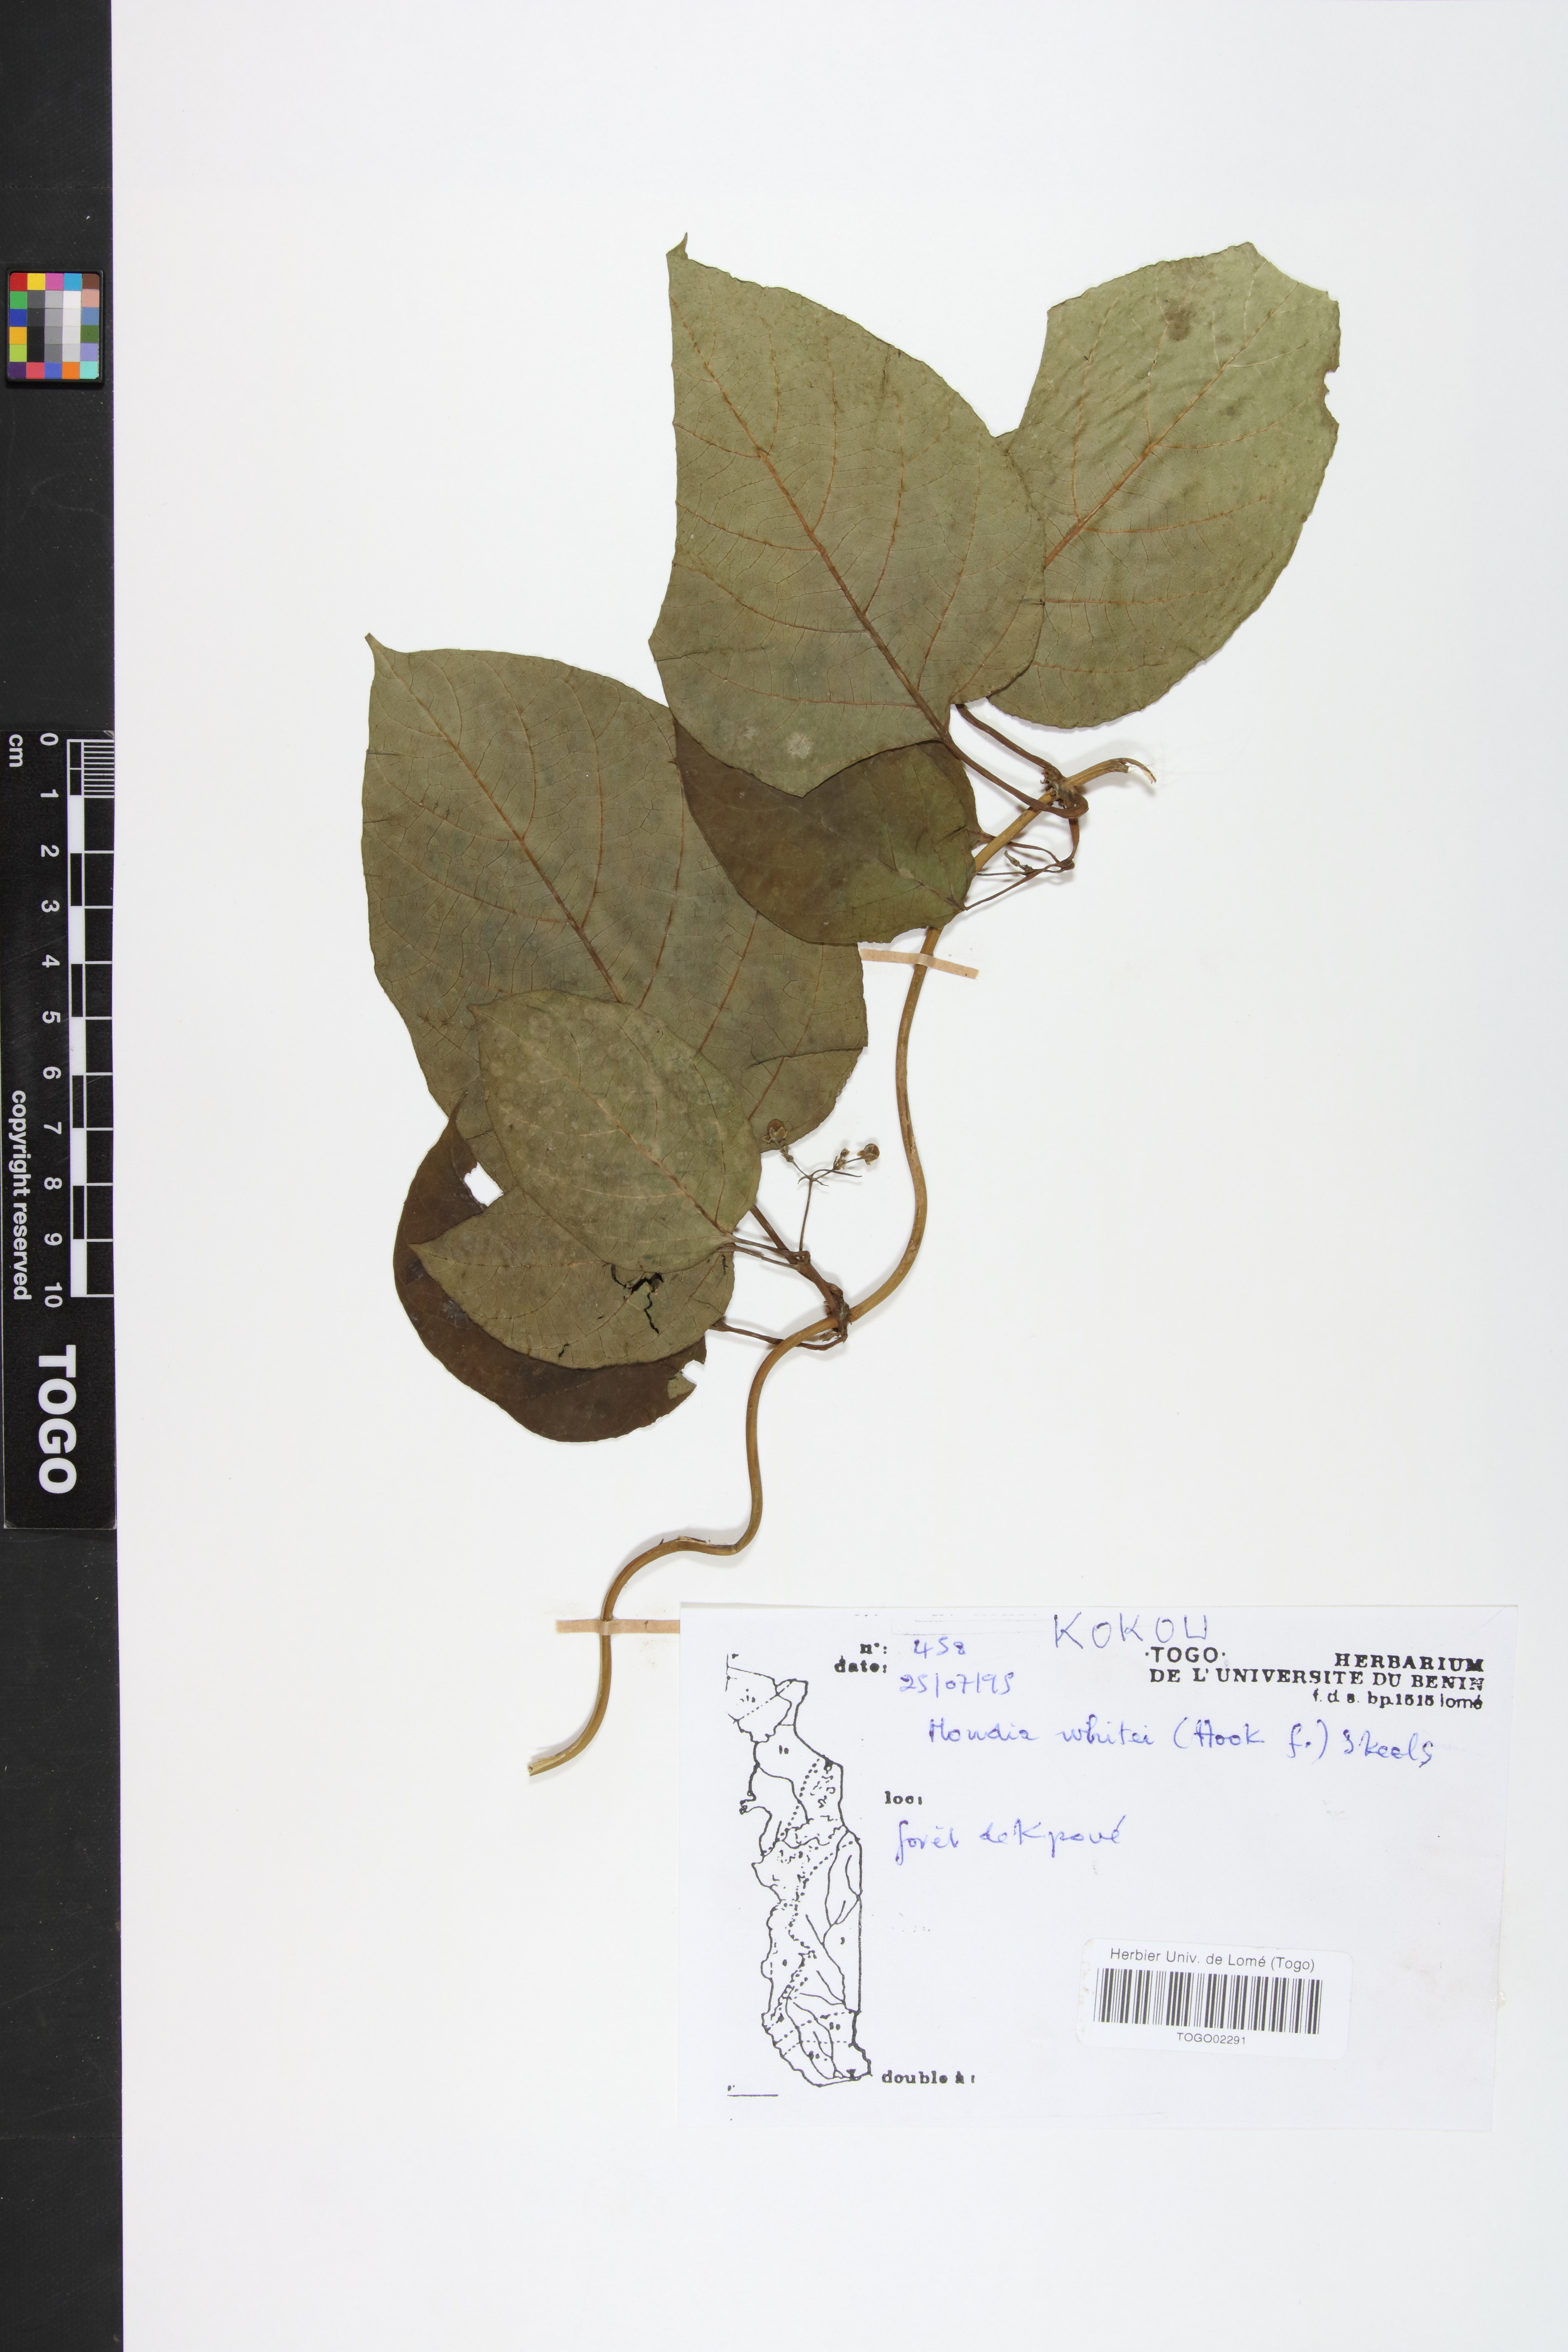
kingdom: Plantae
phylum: Tracheophyta
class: Magnoliopsida
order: Gentianales
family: Apocynaceae
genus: Mondia
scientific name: Mondia whitei
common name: Mondia
